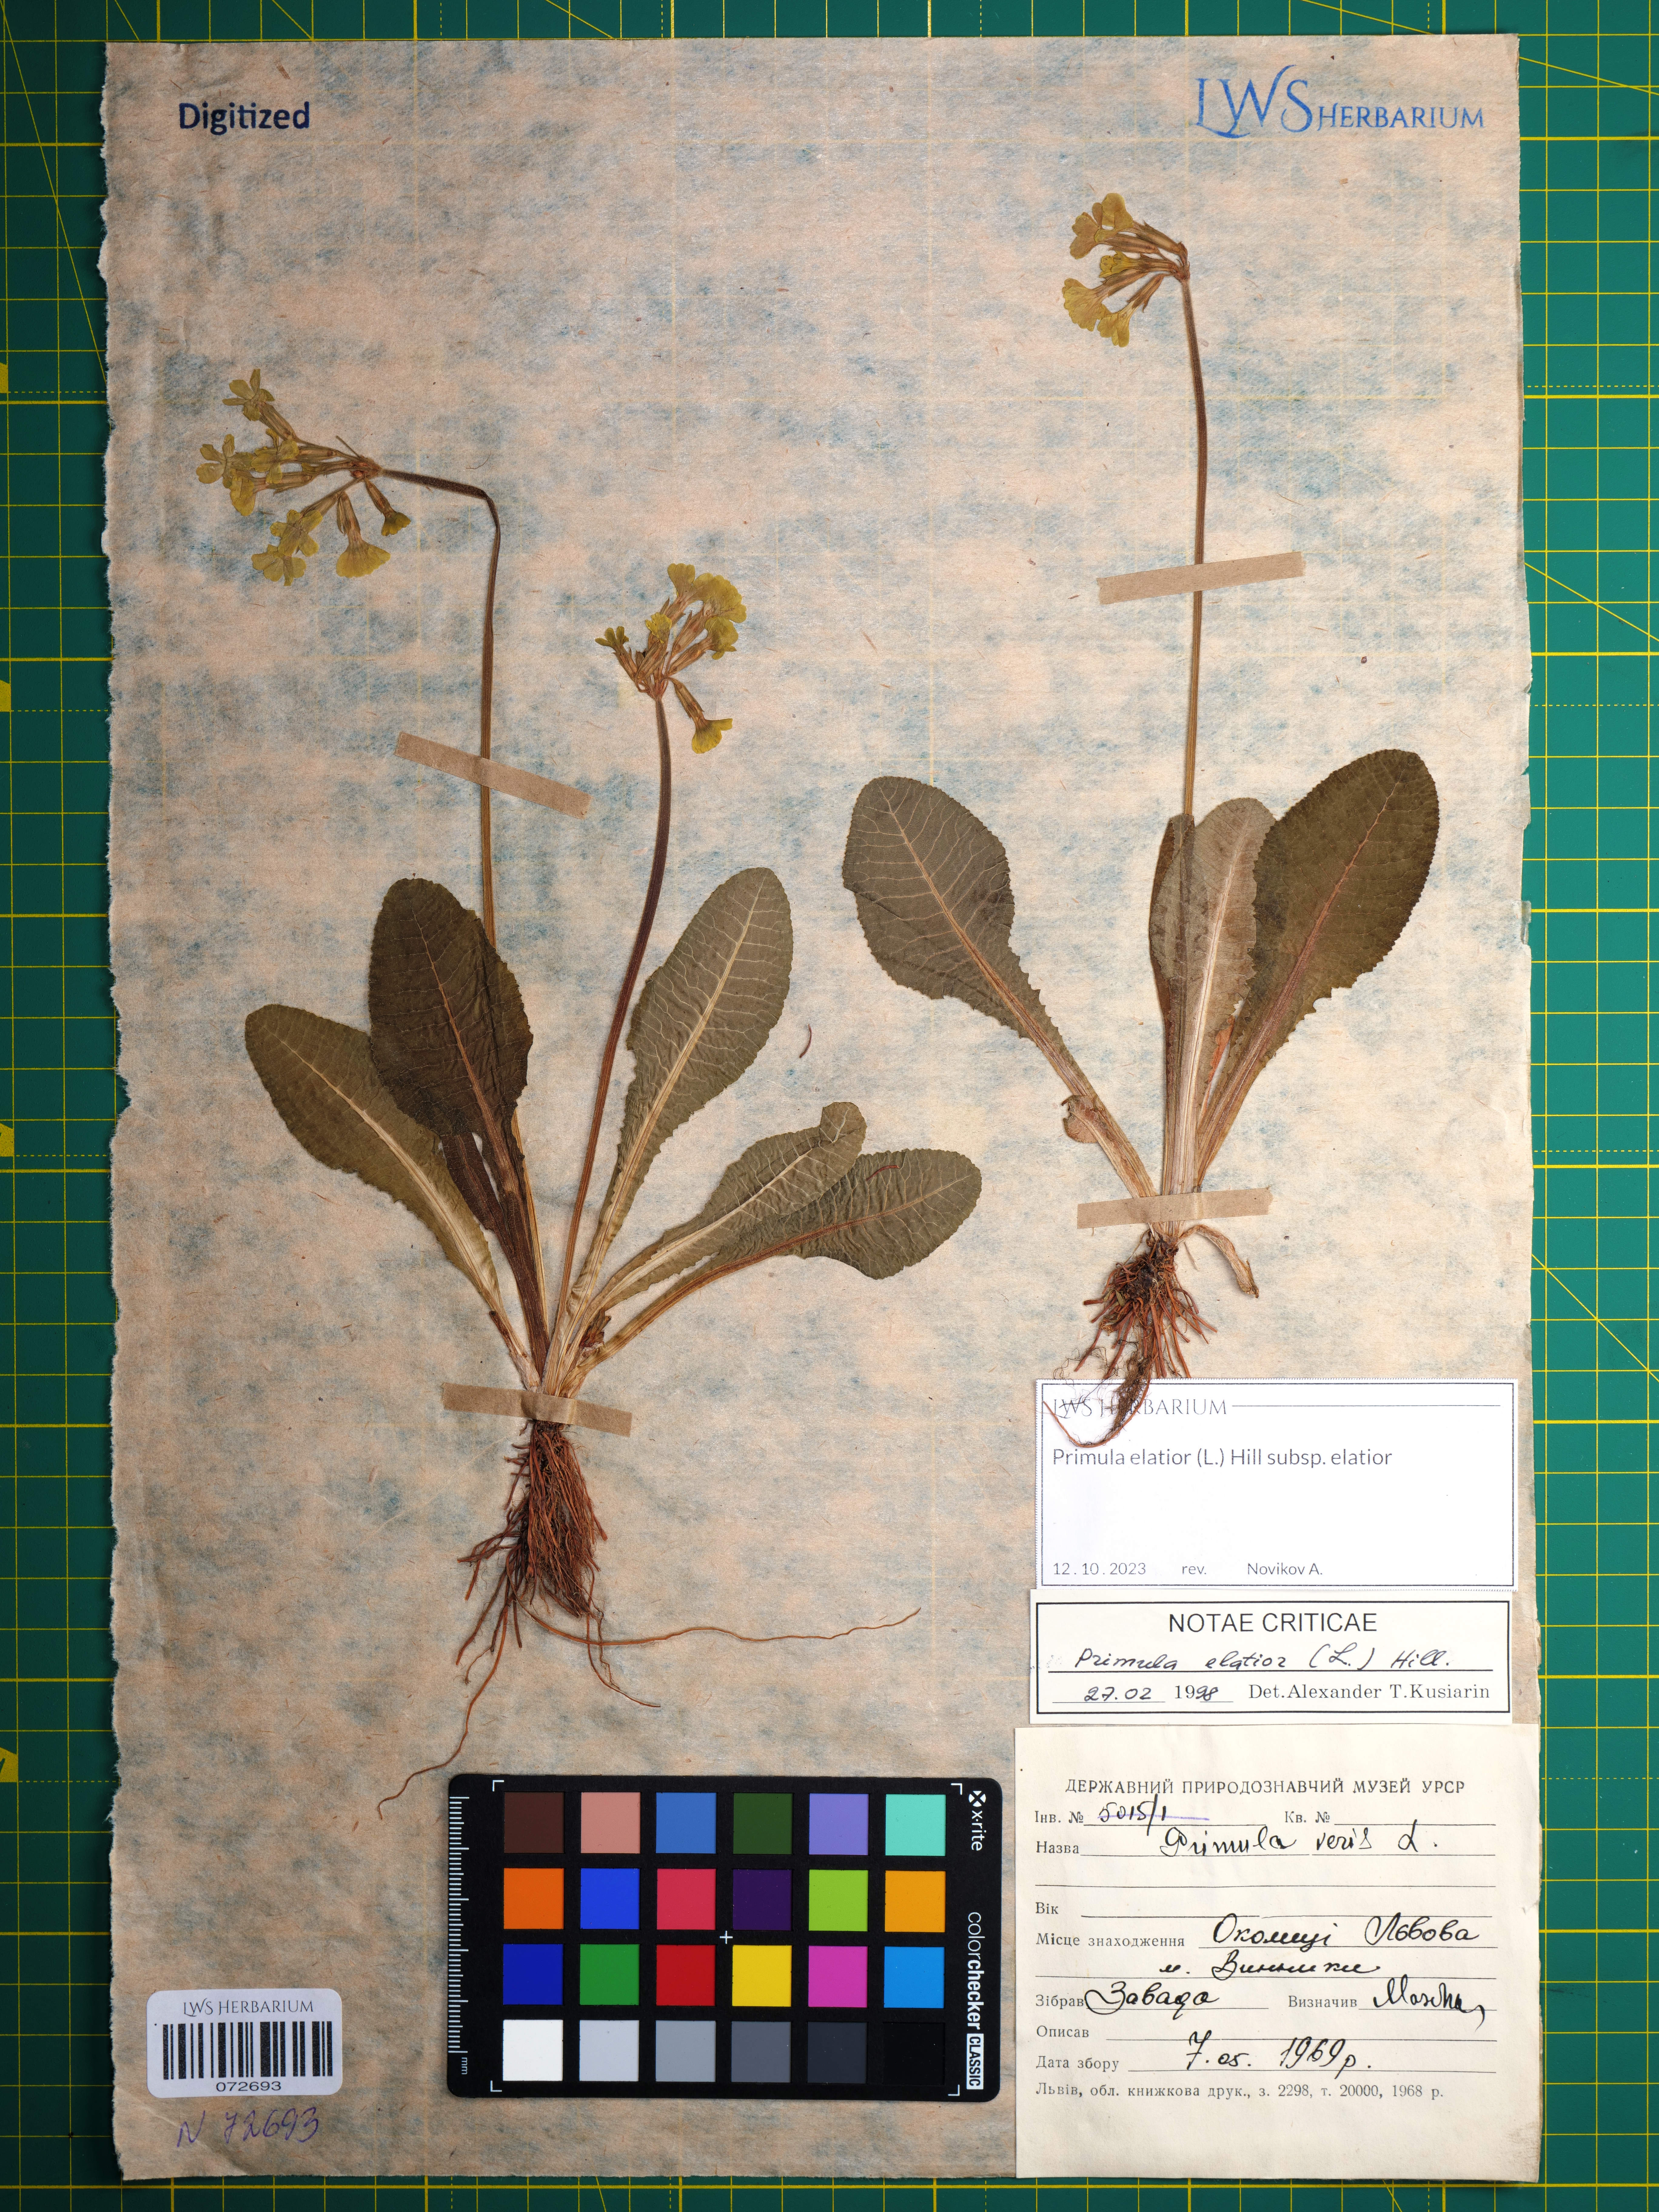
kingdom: Plantae
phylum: Tracheophyta
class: Magnoliopsida
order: Ericales
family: Primulaceae
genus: Primula
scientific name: Primula elatior
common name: Oxlip
